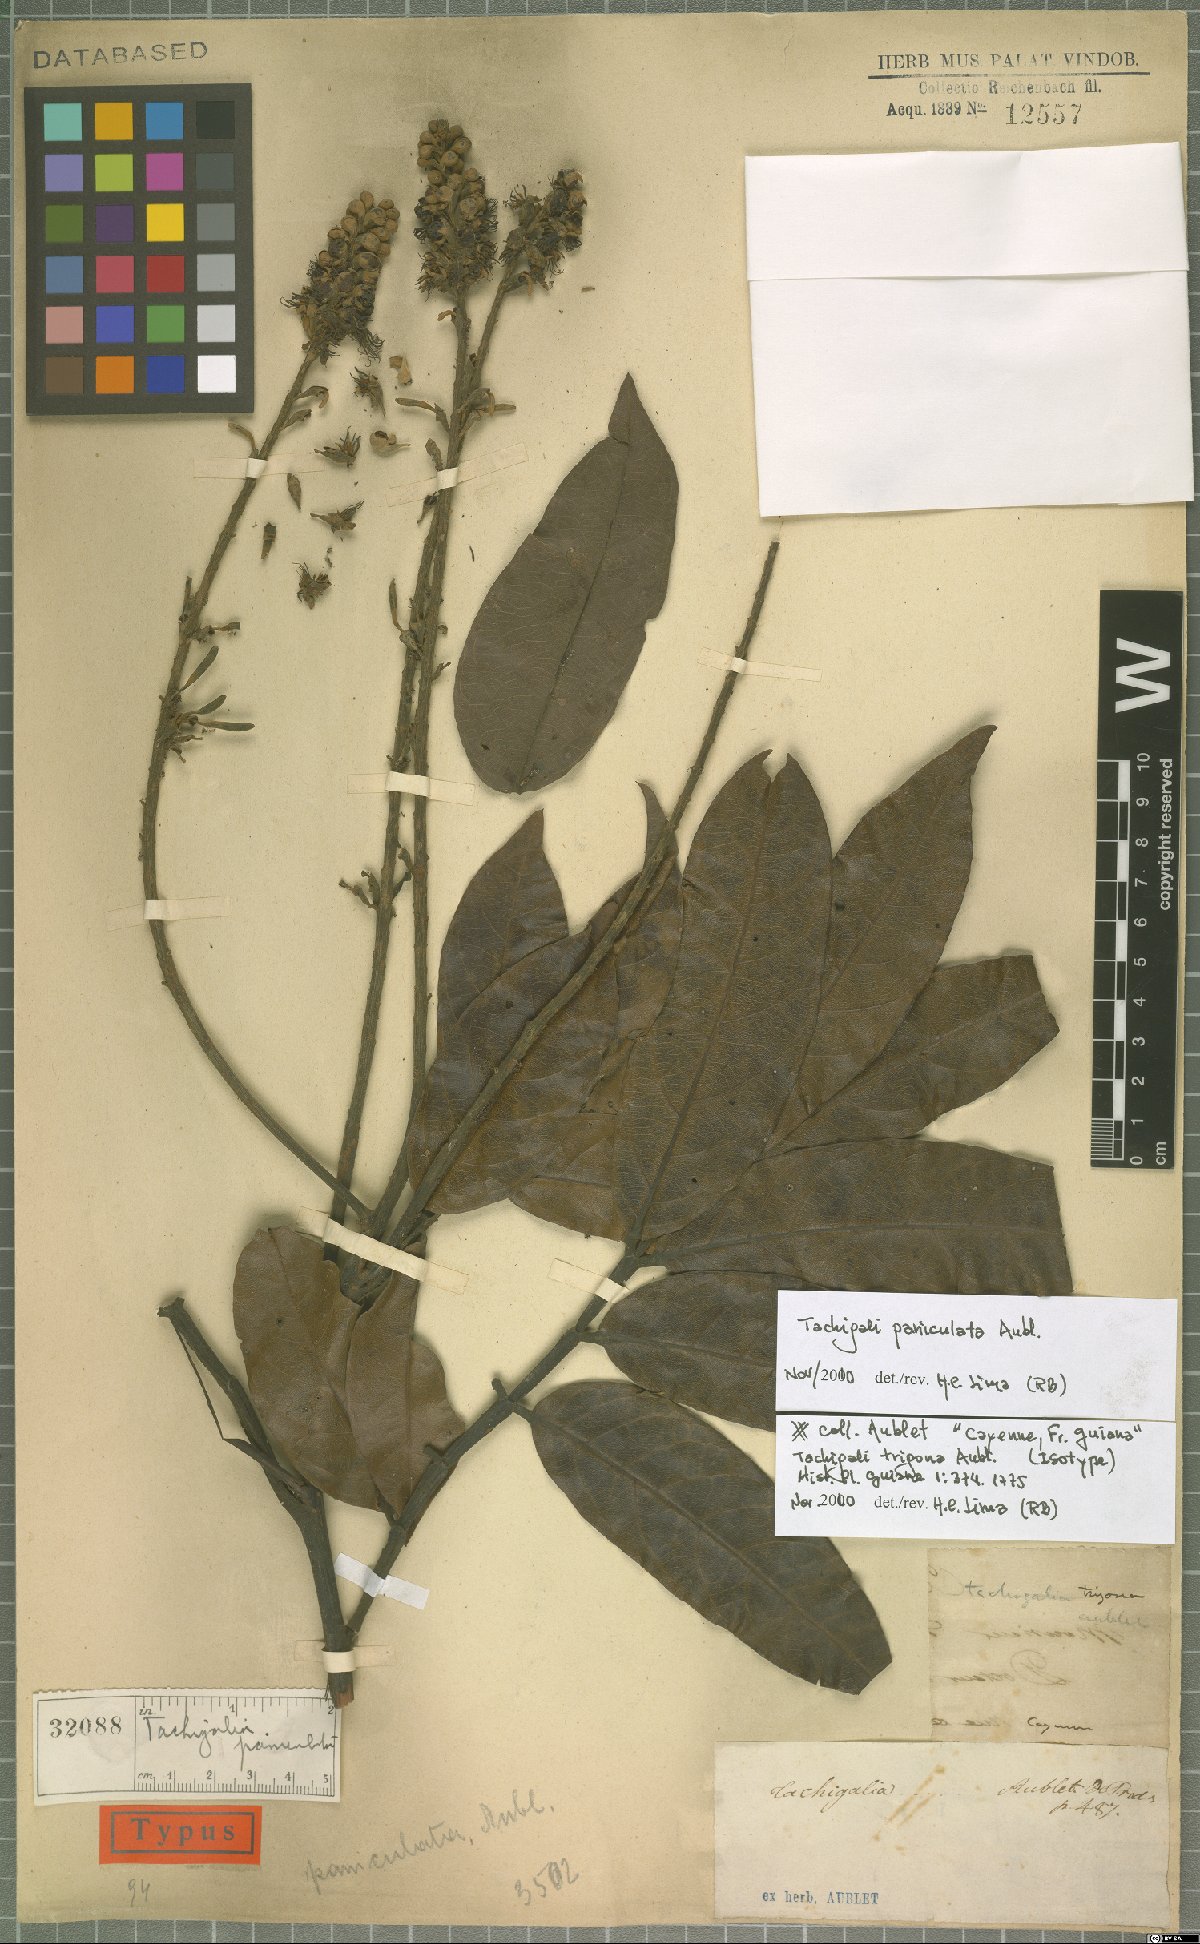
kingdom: Plantae
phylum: Tracheophyta
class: Magnoliopsida
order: Fabales
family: Fabaceae
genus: Tachigali
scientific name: Tachigali paniculata
